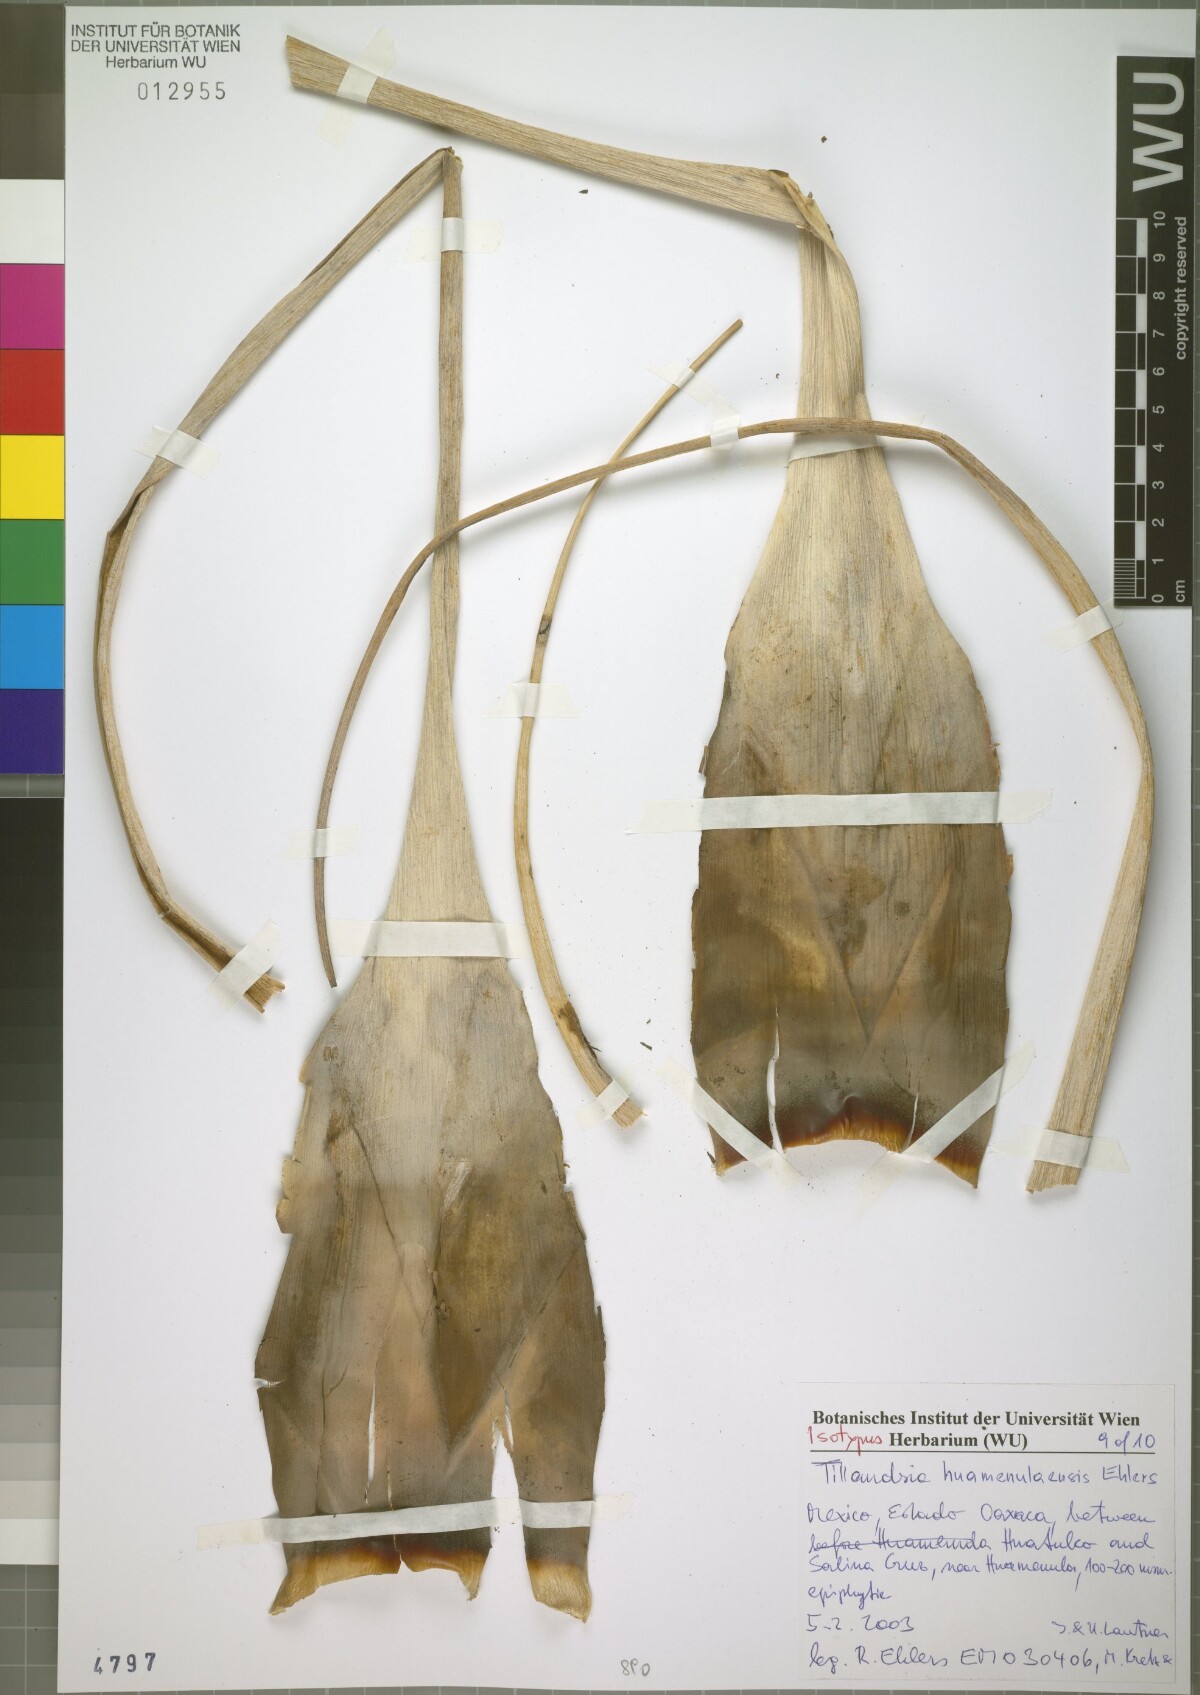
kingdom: Plantae
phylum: Tracheophyta
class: Liliopsida
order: Poales
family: Bromeliaceae
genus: Tillandsia
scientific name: Tillandsia huamenulaensis
